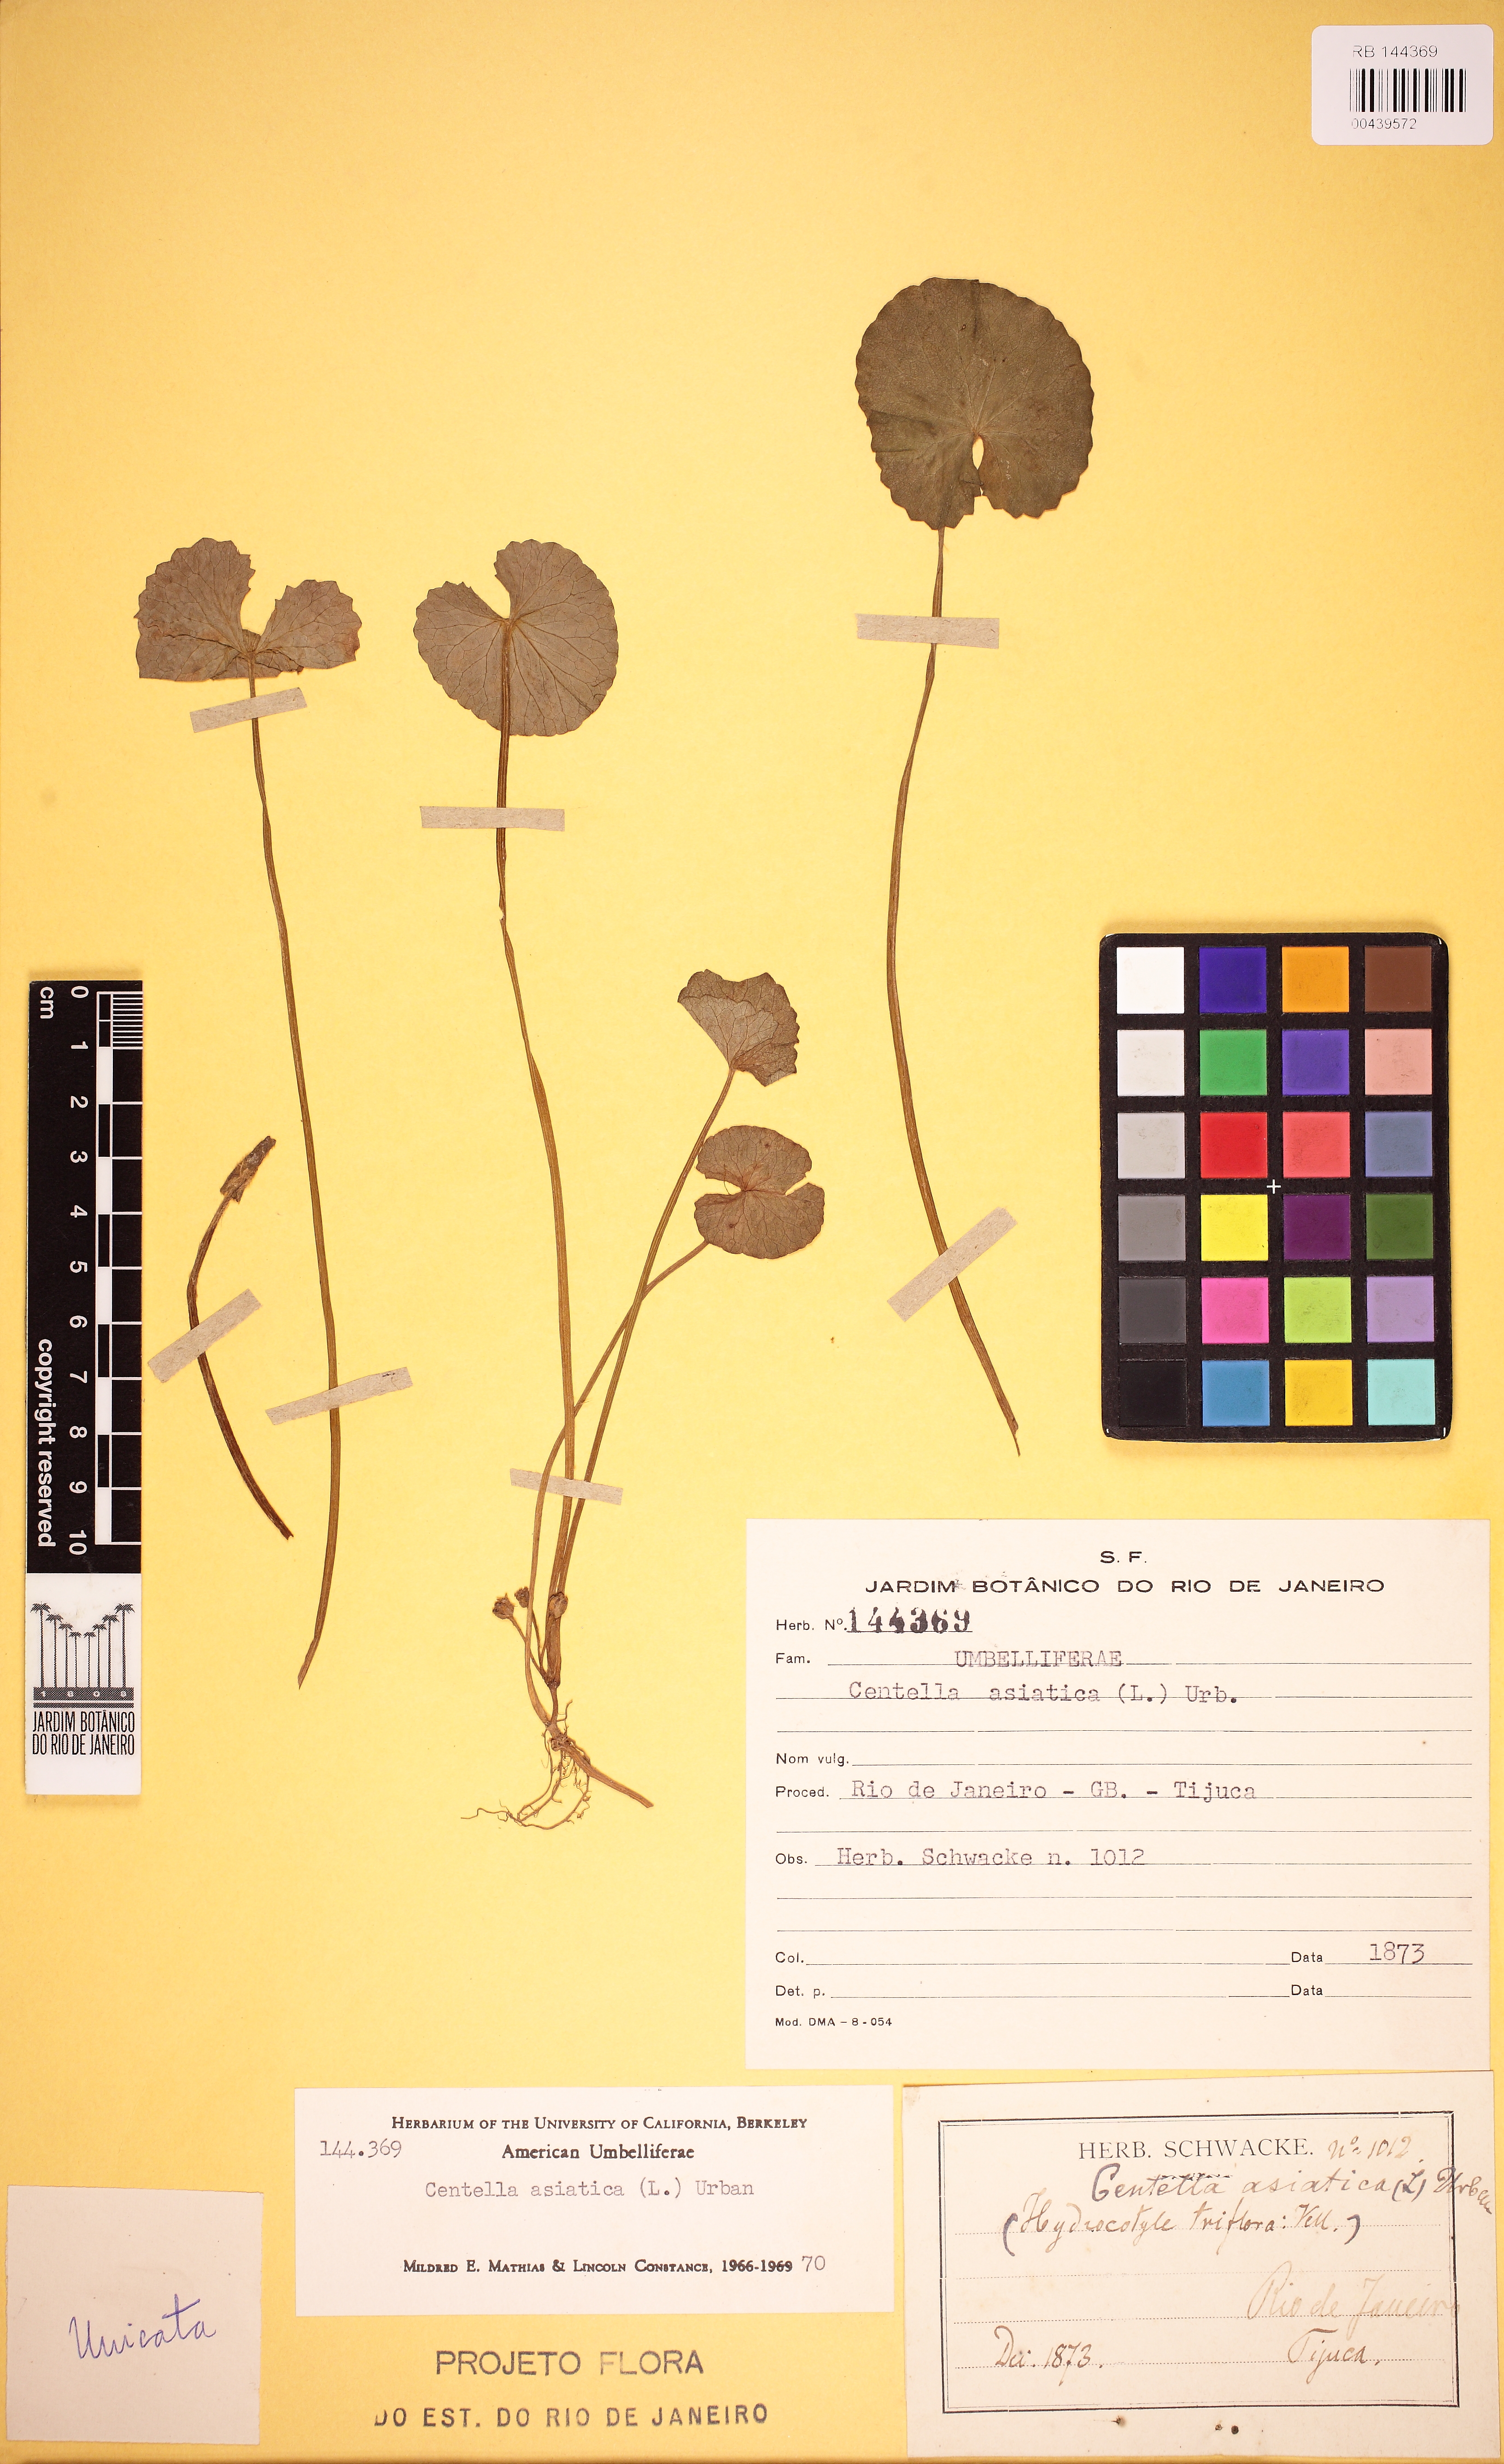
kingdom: Plantae
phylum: Tracheophyta
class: Magnoliopsida
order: Apiales
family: Apiaceae
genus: Centella
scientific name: Centella asiatica
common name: Spadeleaf
